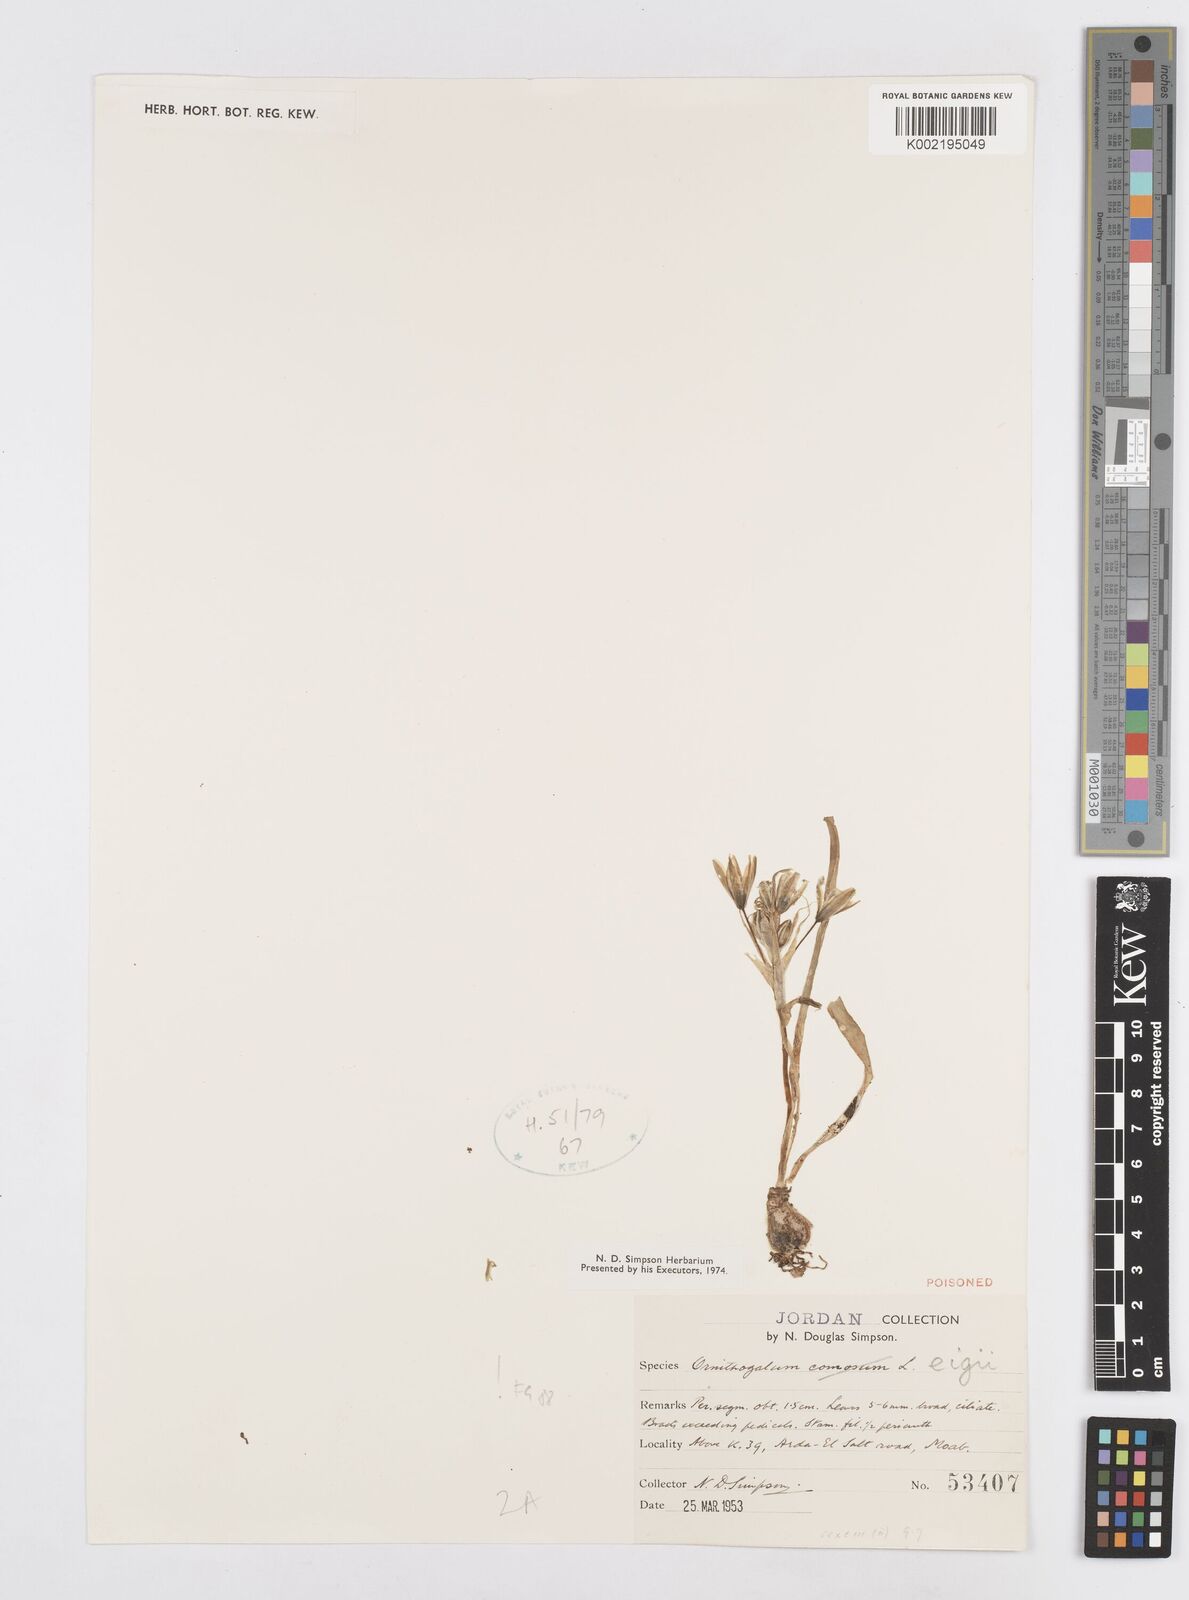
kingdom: Plantae
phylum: Tracheophyta
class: Liliopsida
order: Asparagales
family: Asparagaceae
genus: Ornithogalum
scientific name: Ornithogalum neurostegium
